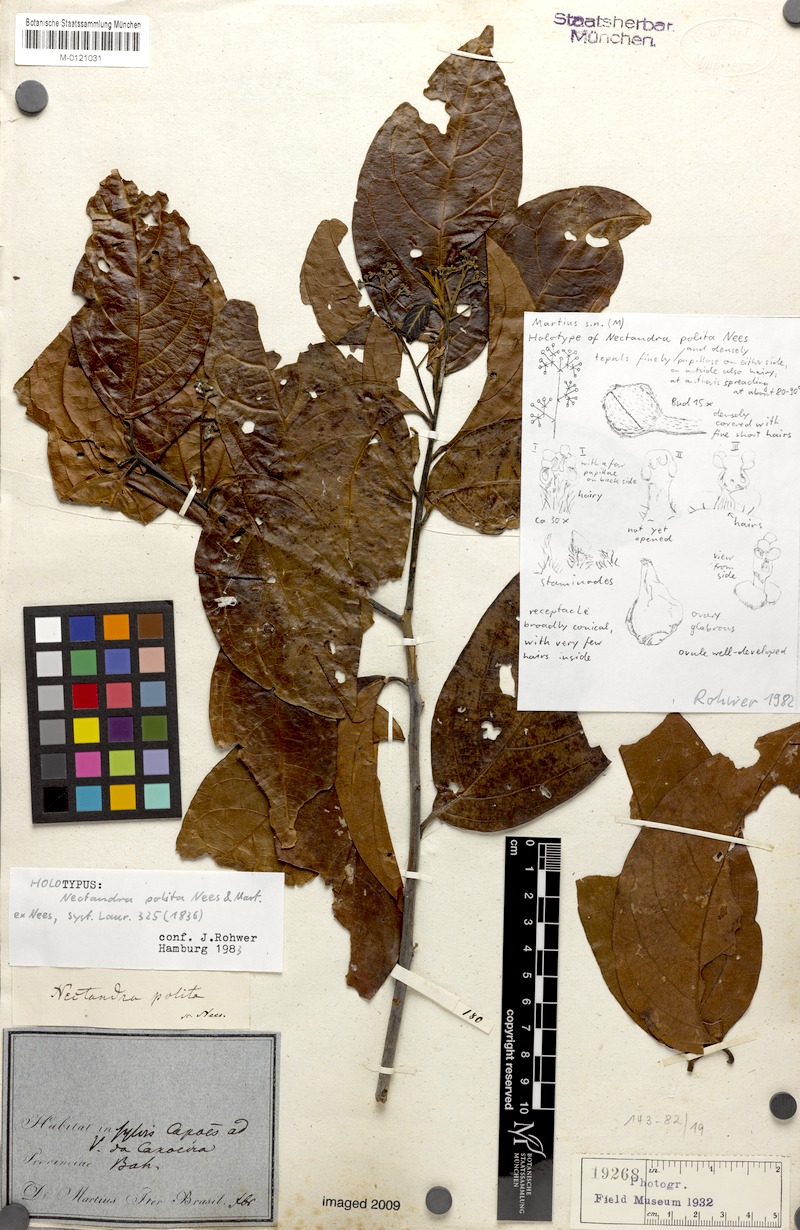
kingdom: Plantae
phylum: Tracheophyta
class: Magnoliopsida
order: Laurales
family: Lauraceae
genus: Damburneya
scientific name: Damburneya purpurea
